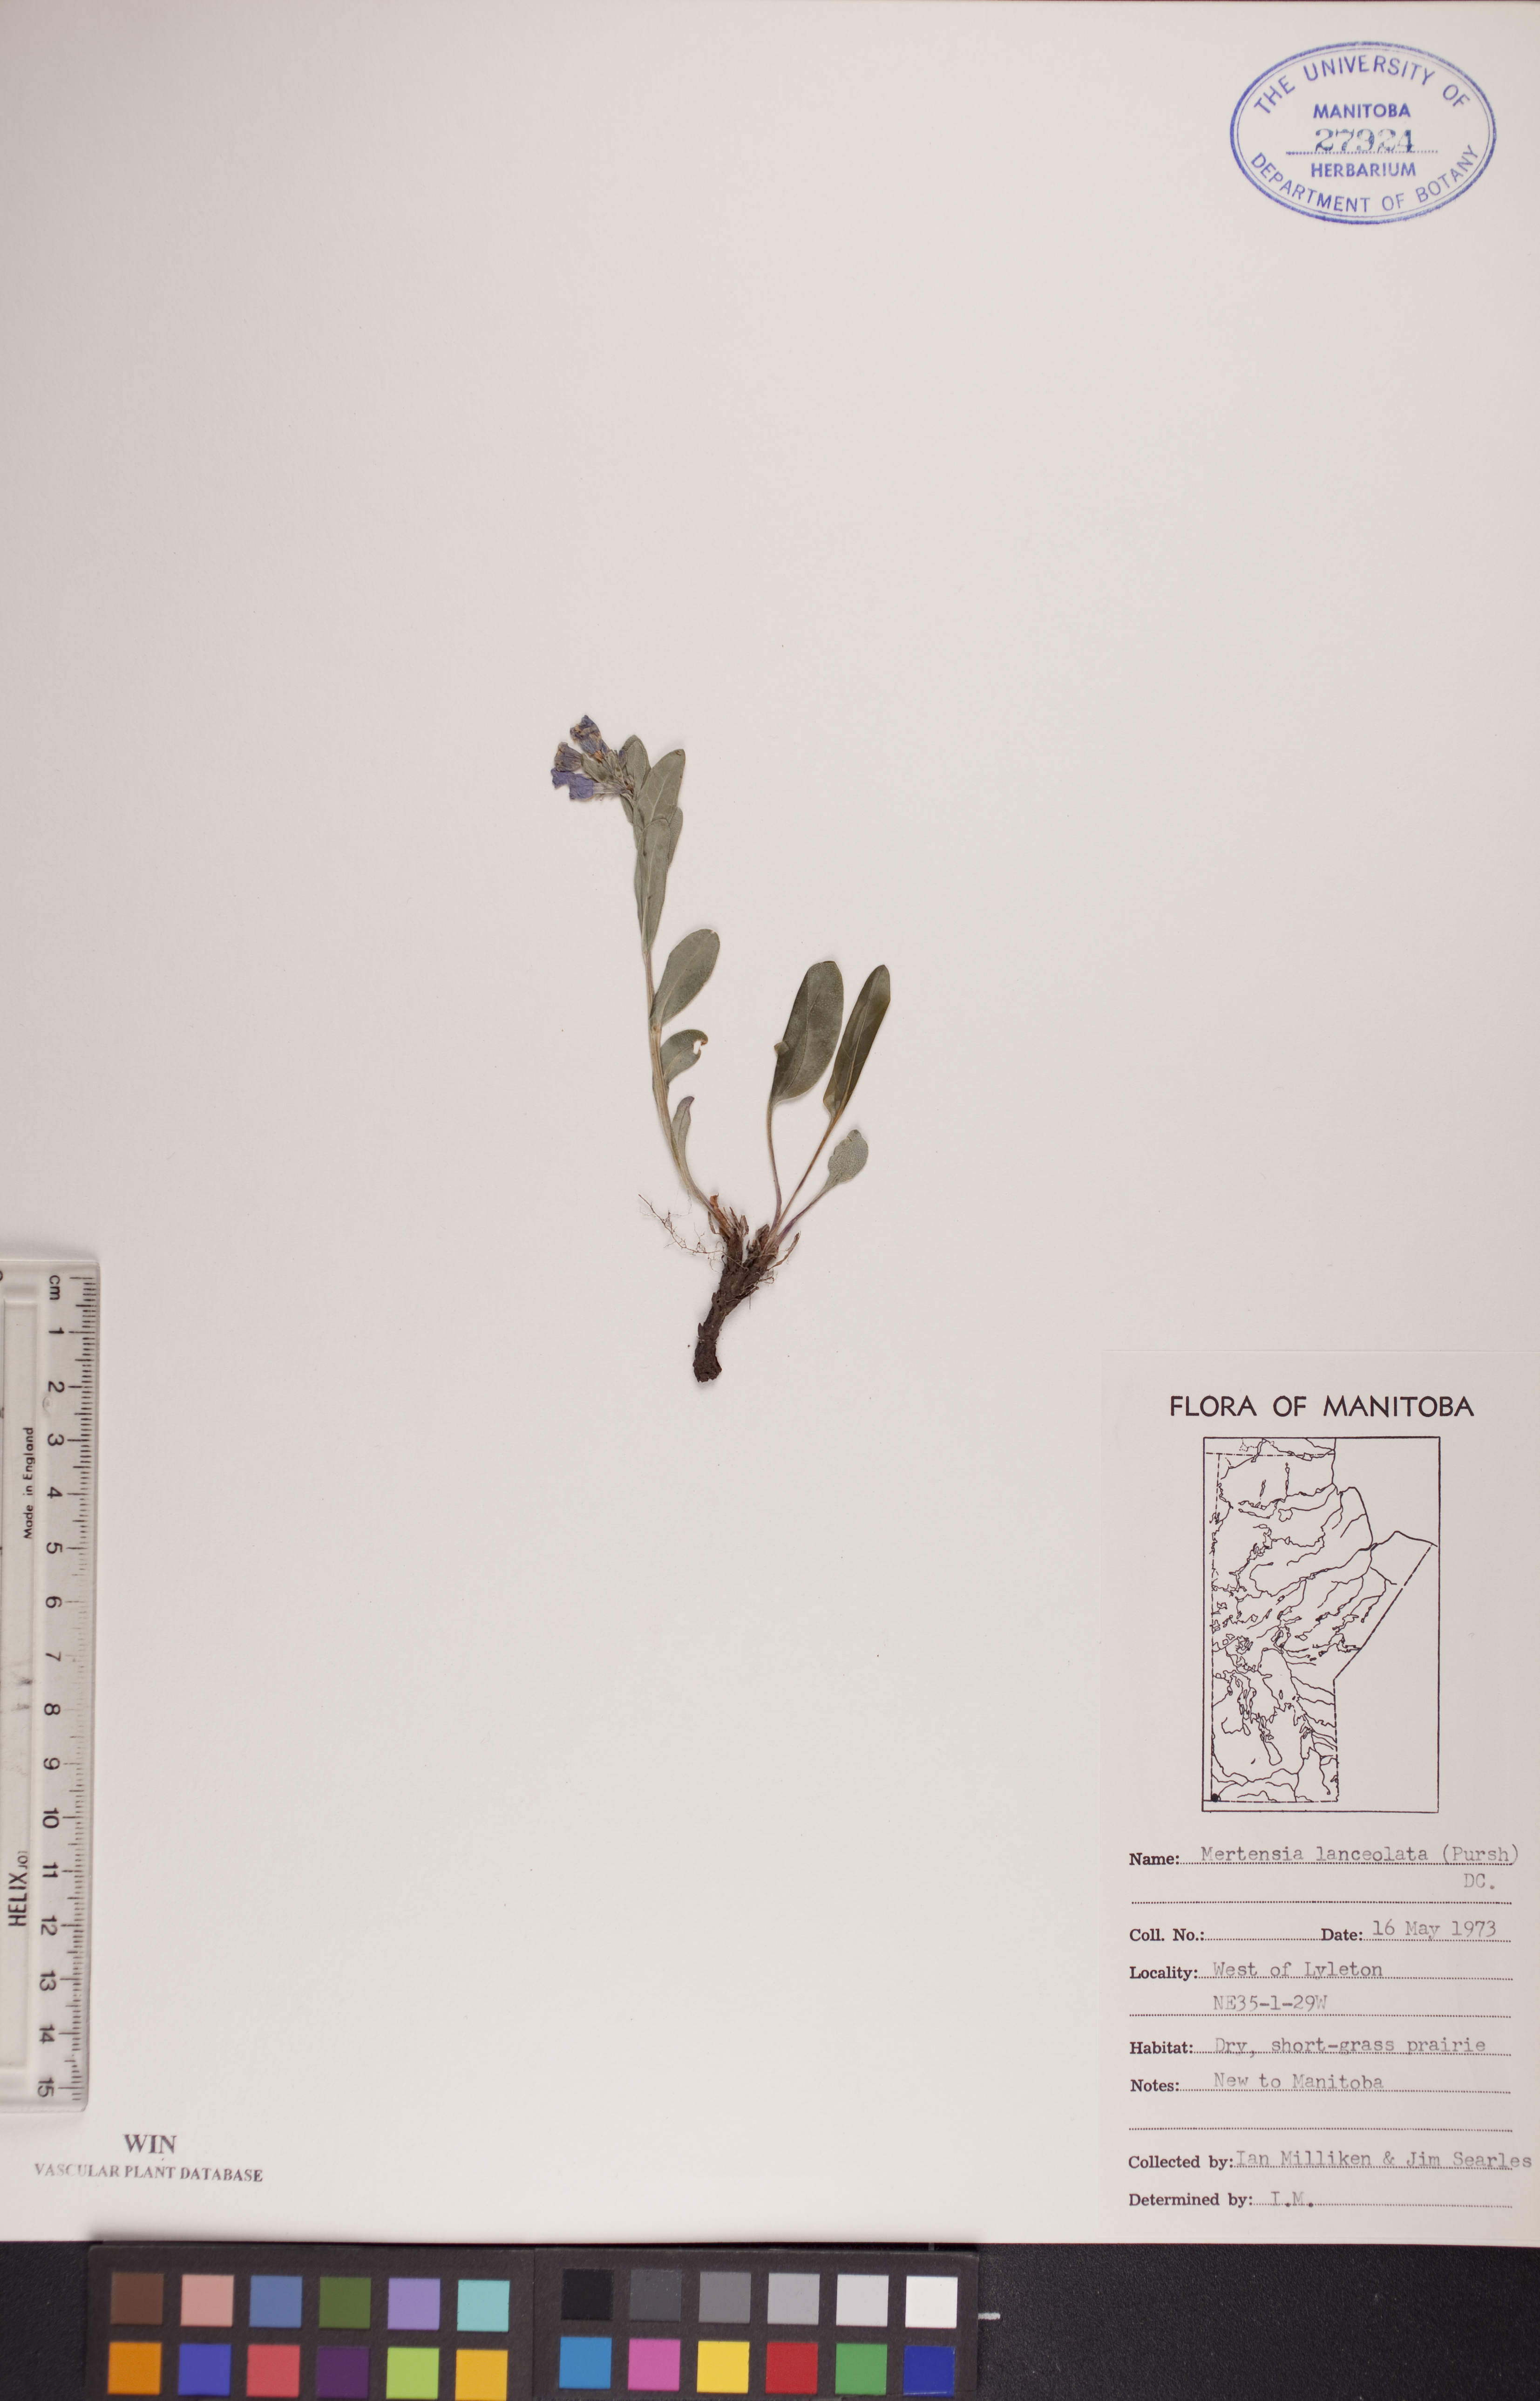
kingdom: Plantae
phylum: Tracheophyta
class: Magnoliopsida
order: Boraginales
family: Boraginaceae
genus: Mertensia
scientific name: Mertensia lanceolata
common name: Lance-leaved bluebells
